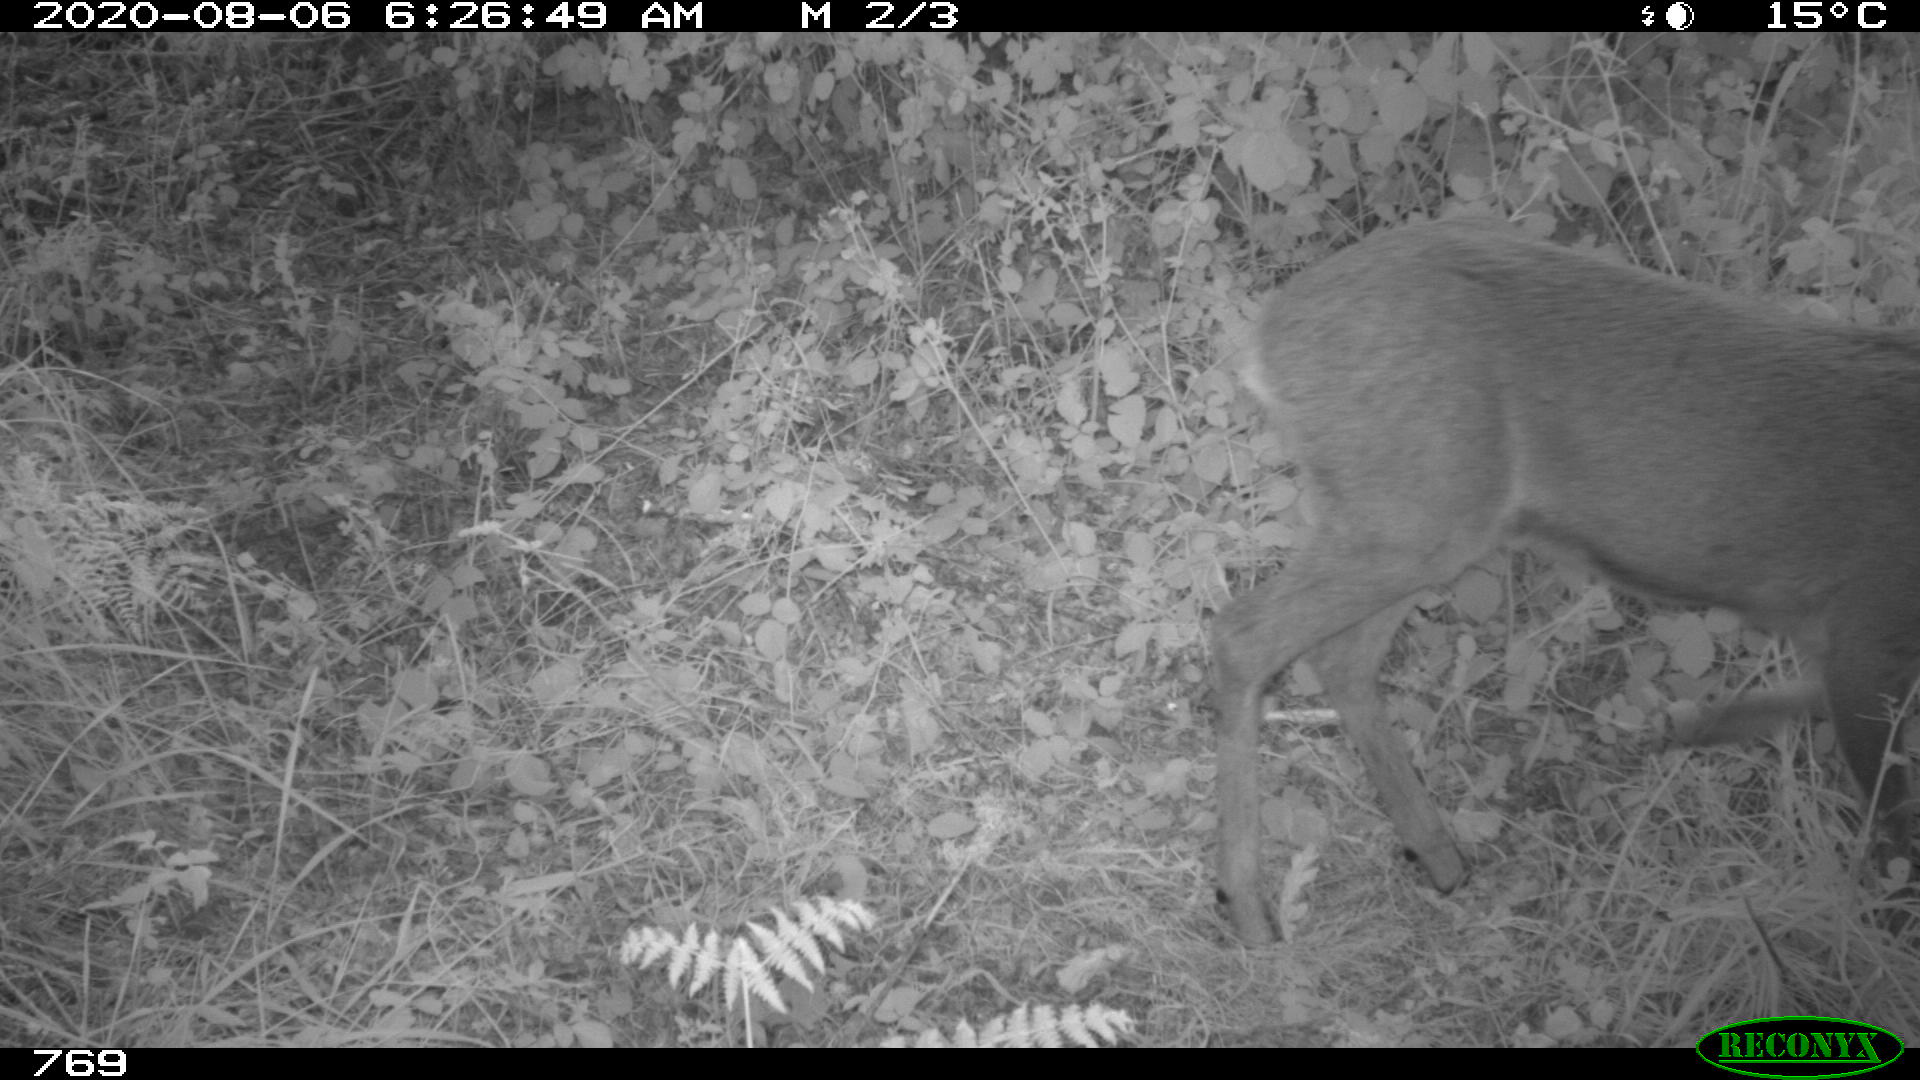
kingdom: Animalia
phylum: Chordata
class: Mammalia
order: Artiodactyla
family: Cervidae
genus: Capreolus
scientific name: Capreolus capreolus
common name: Western roe deer
